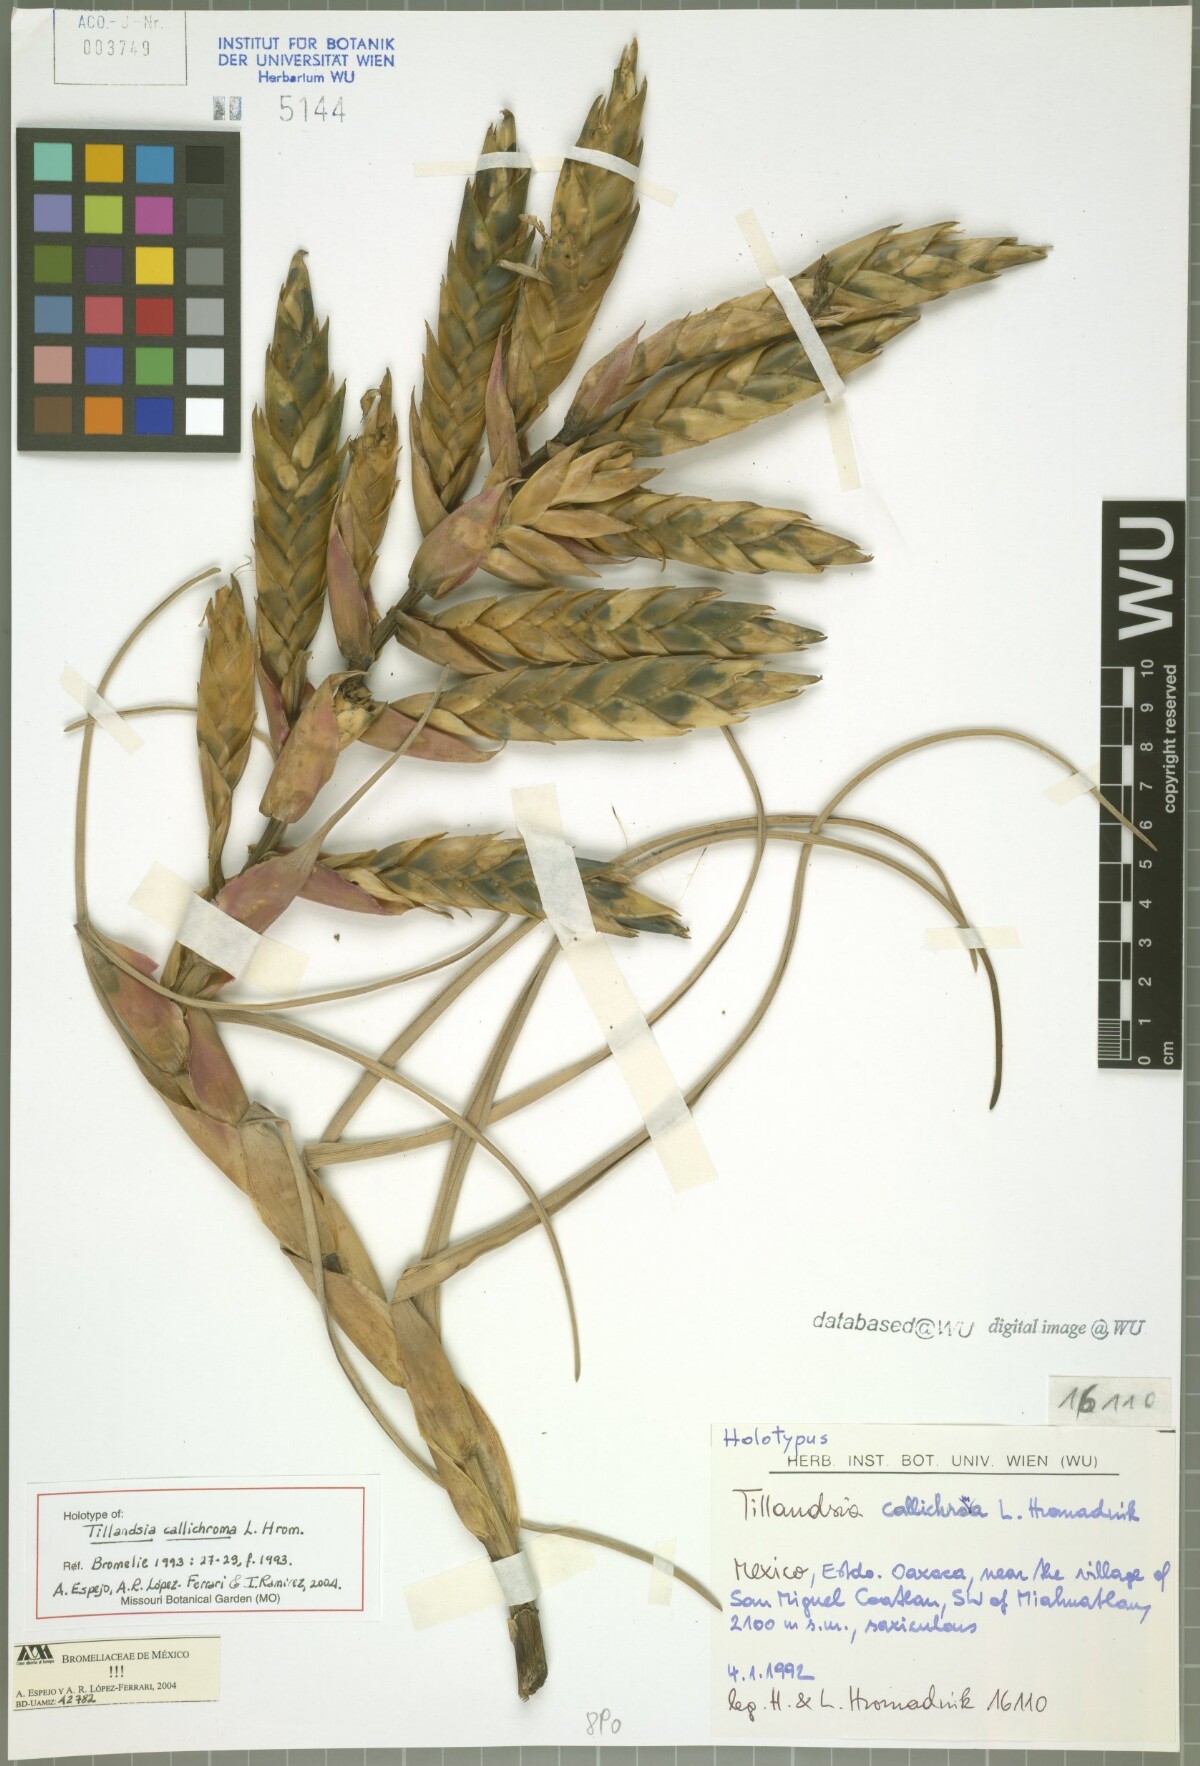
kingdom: Plantae
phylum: Tracheophyta
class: Liliopsida
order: Poales
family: Bromeliaceae
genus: Tillandsia
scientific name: Tillandsia callichroma
